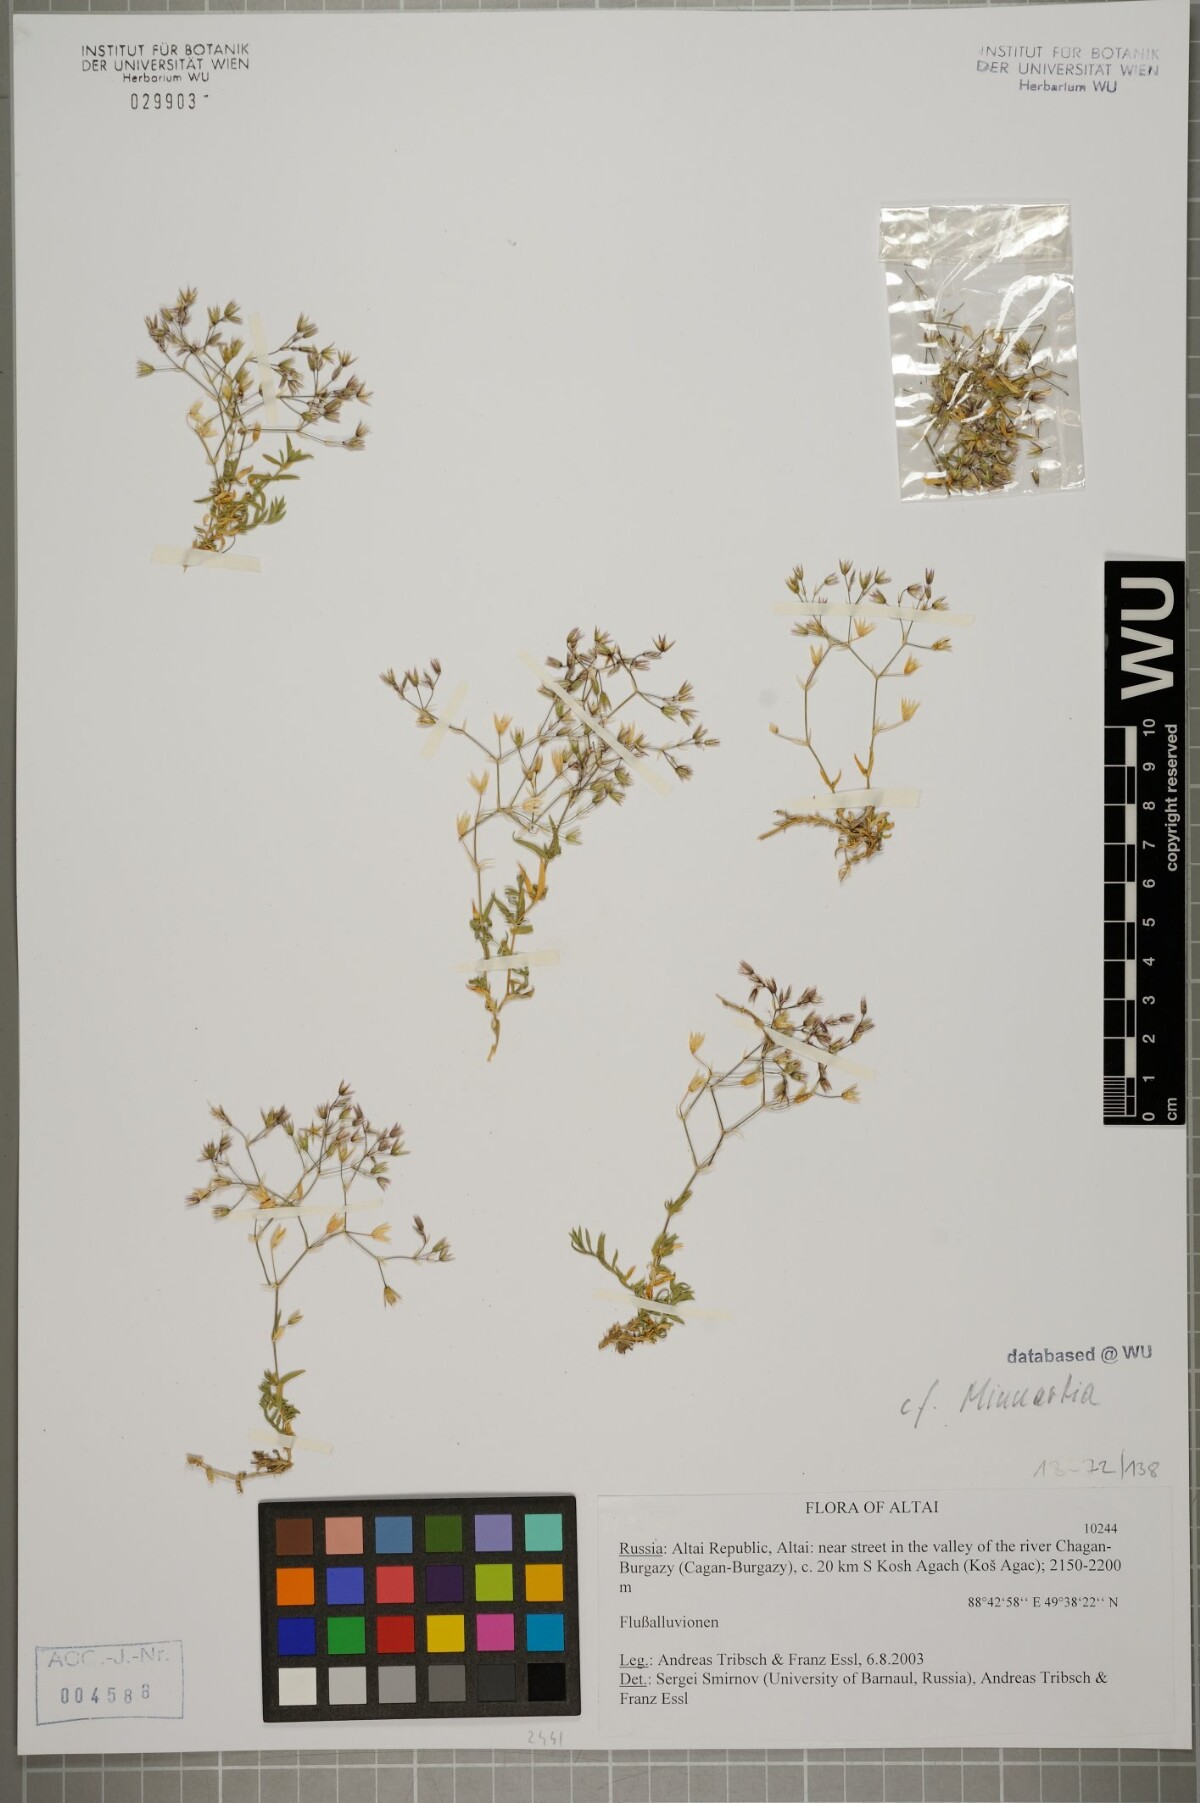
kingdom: Plantae
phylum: Tracheophyta
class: Magnoliopsida
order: Caryophyllales
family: Caryophyllaceae
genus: Adenonema
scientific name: Adenonema petraeum
